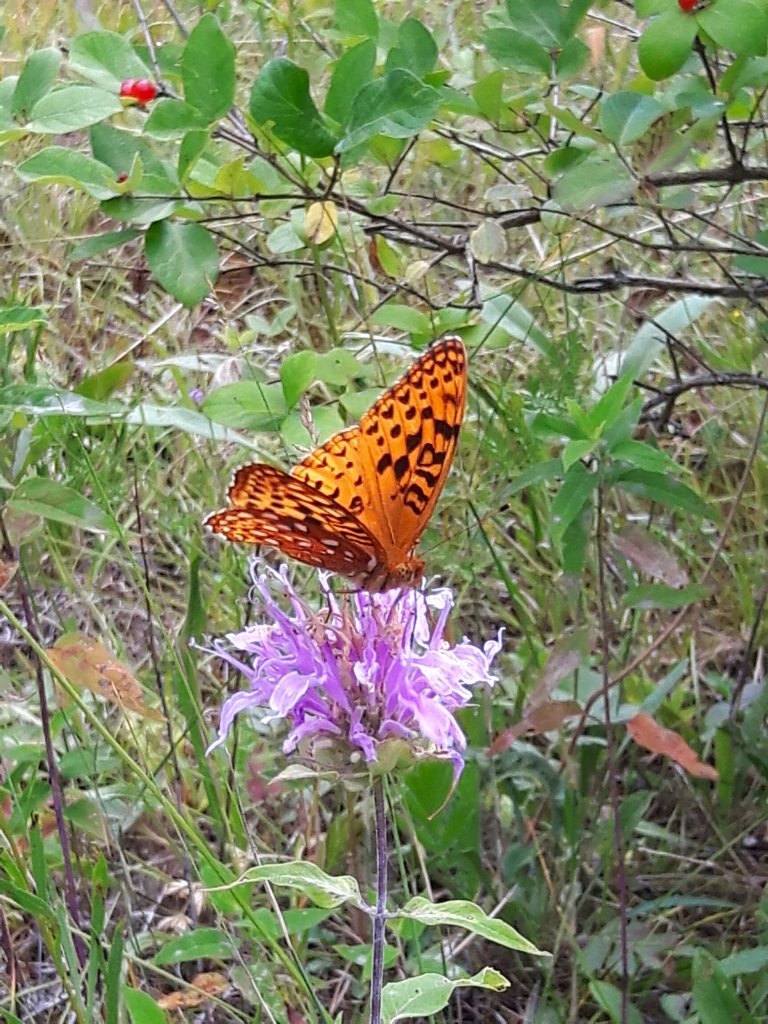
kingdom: Animalia
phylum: Arthropoda
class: Insecta
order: Lepidoptera
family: Nymphalidae
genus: Speyeria
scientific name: Speyeria aphrodite
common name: Aphrodite Fritillary
